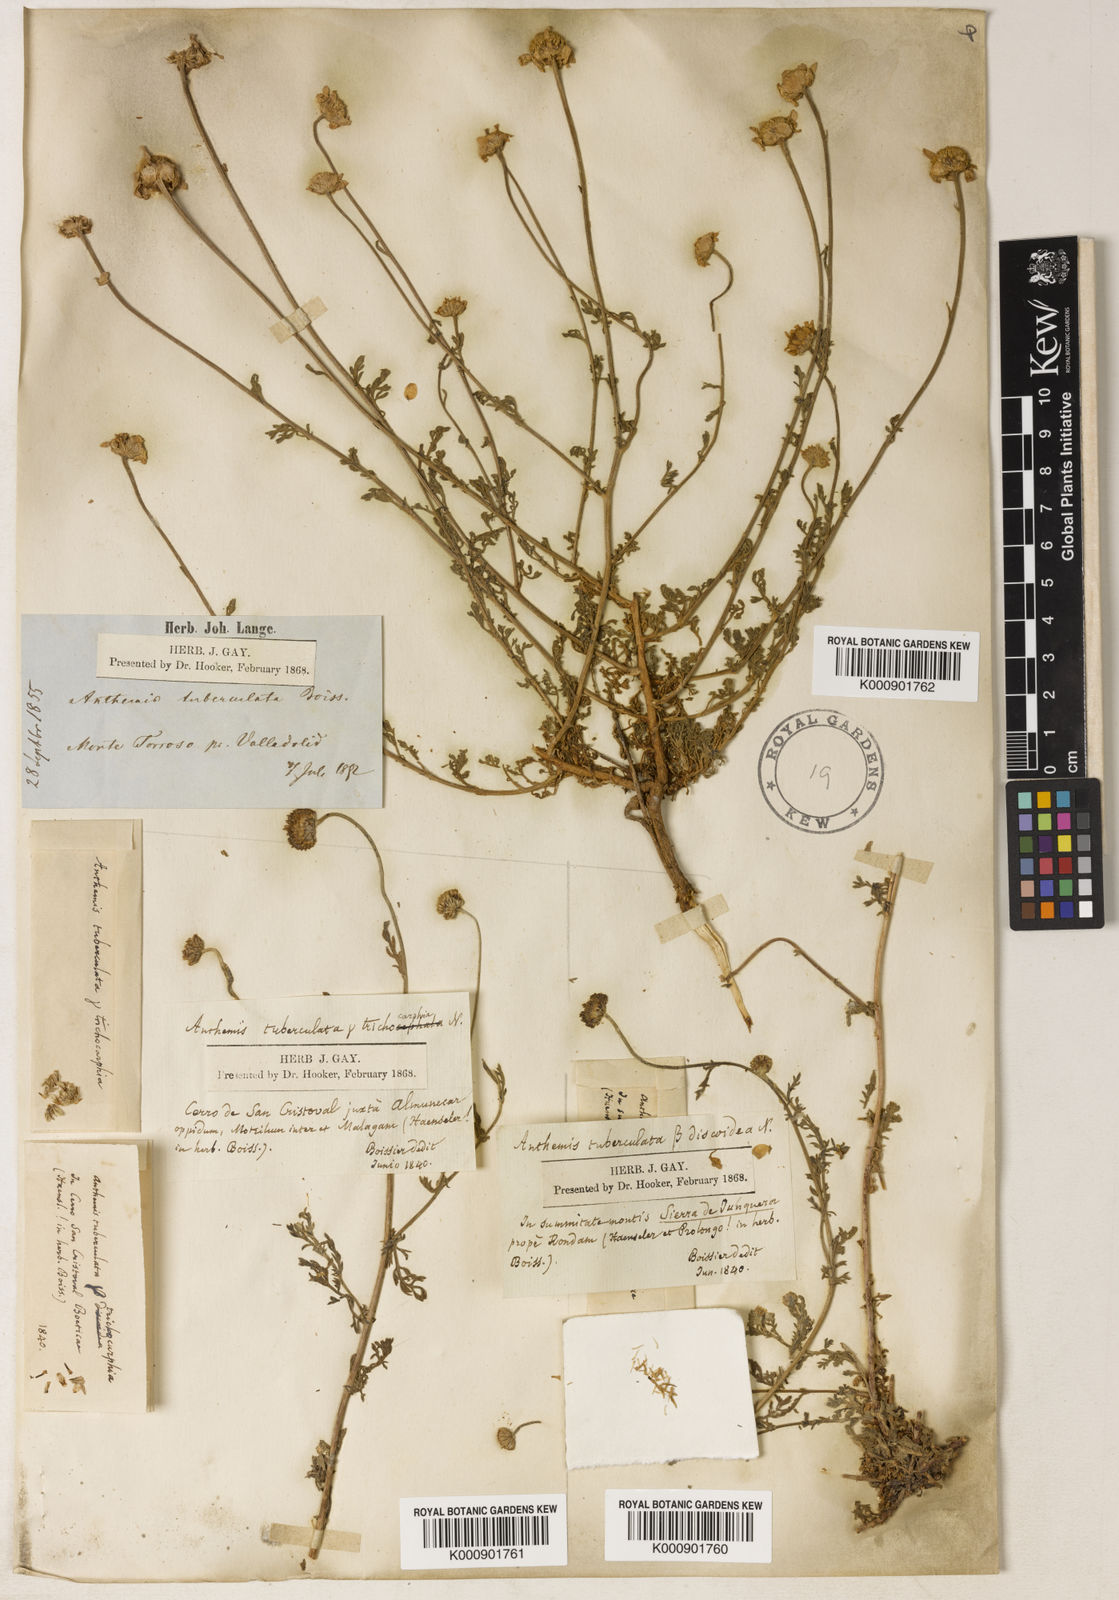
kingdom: Plantae
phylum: Tracheophyta
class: Magnoliopsida
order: Asterales
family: Asteraceae
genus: Anthemis
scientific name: Anthemis
